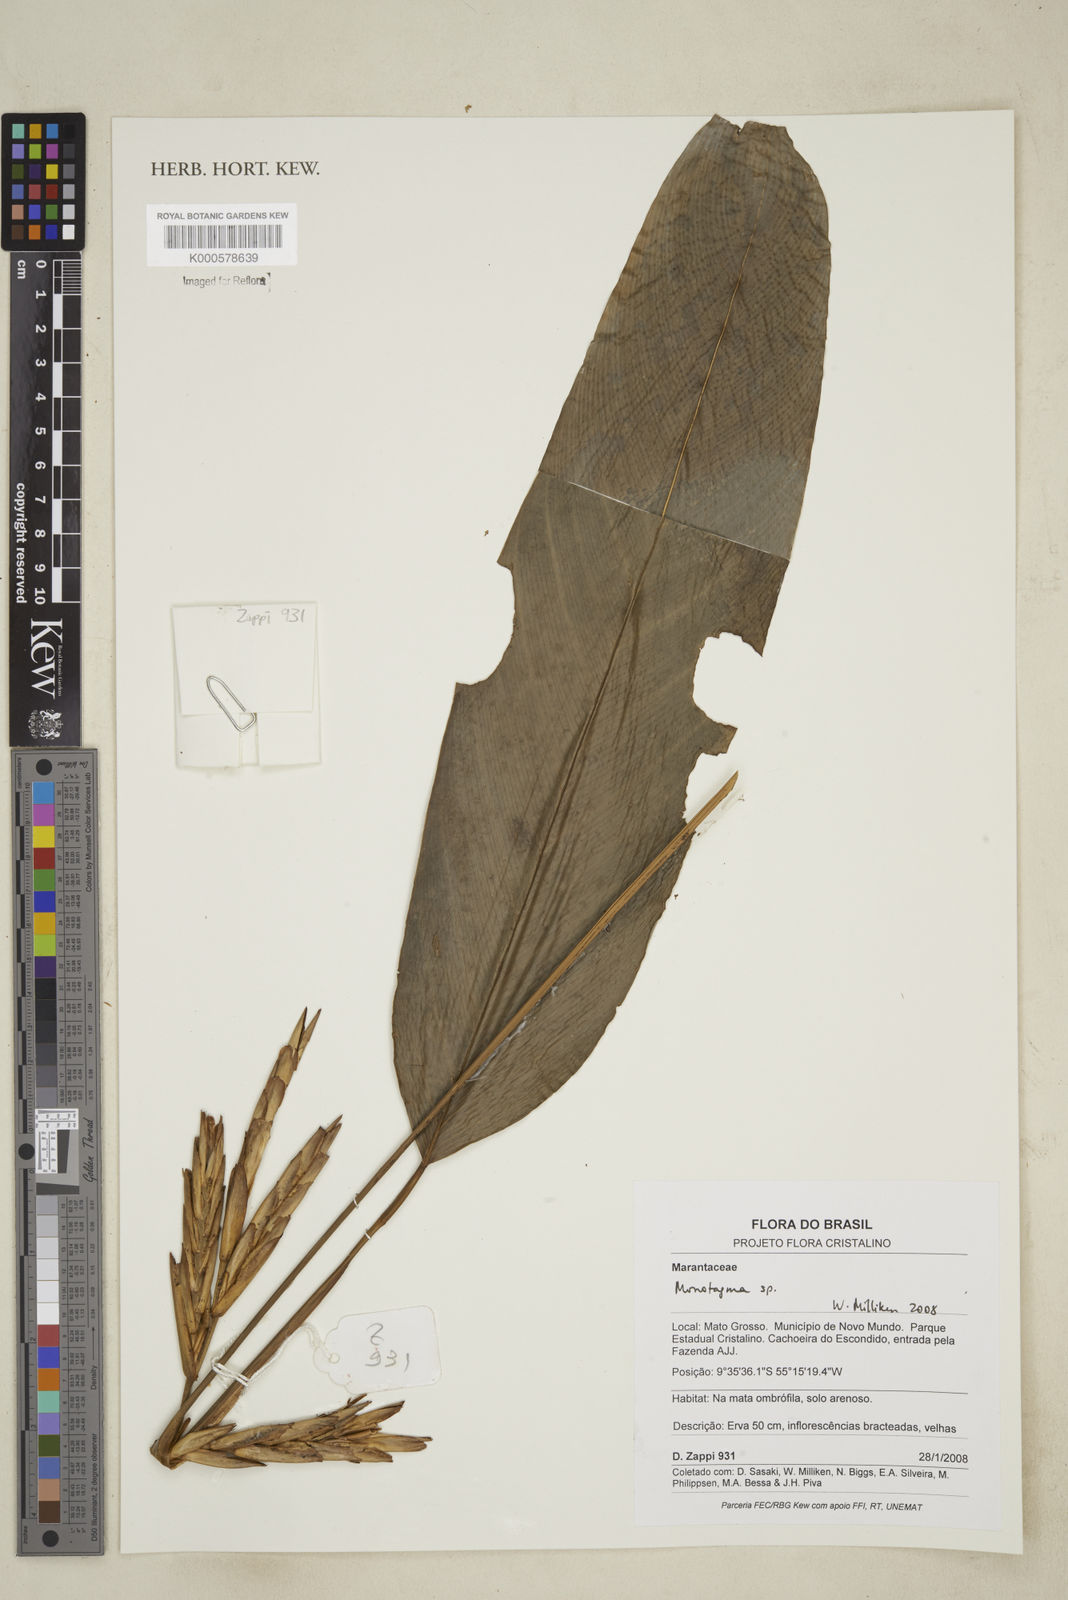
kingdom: Plantae
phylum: Tracheophyta
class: Liliopsida
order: Zingiberales
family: Marantaceae
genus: Monotagma
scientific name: Monotagma
